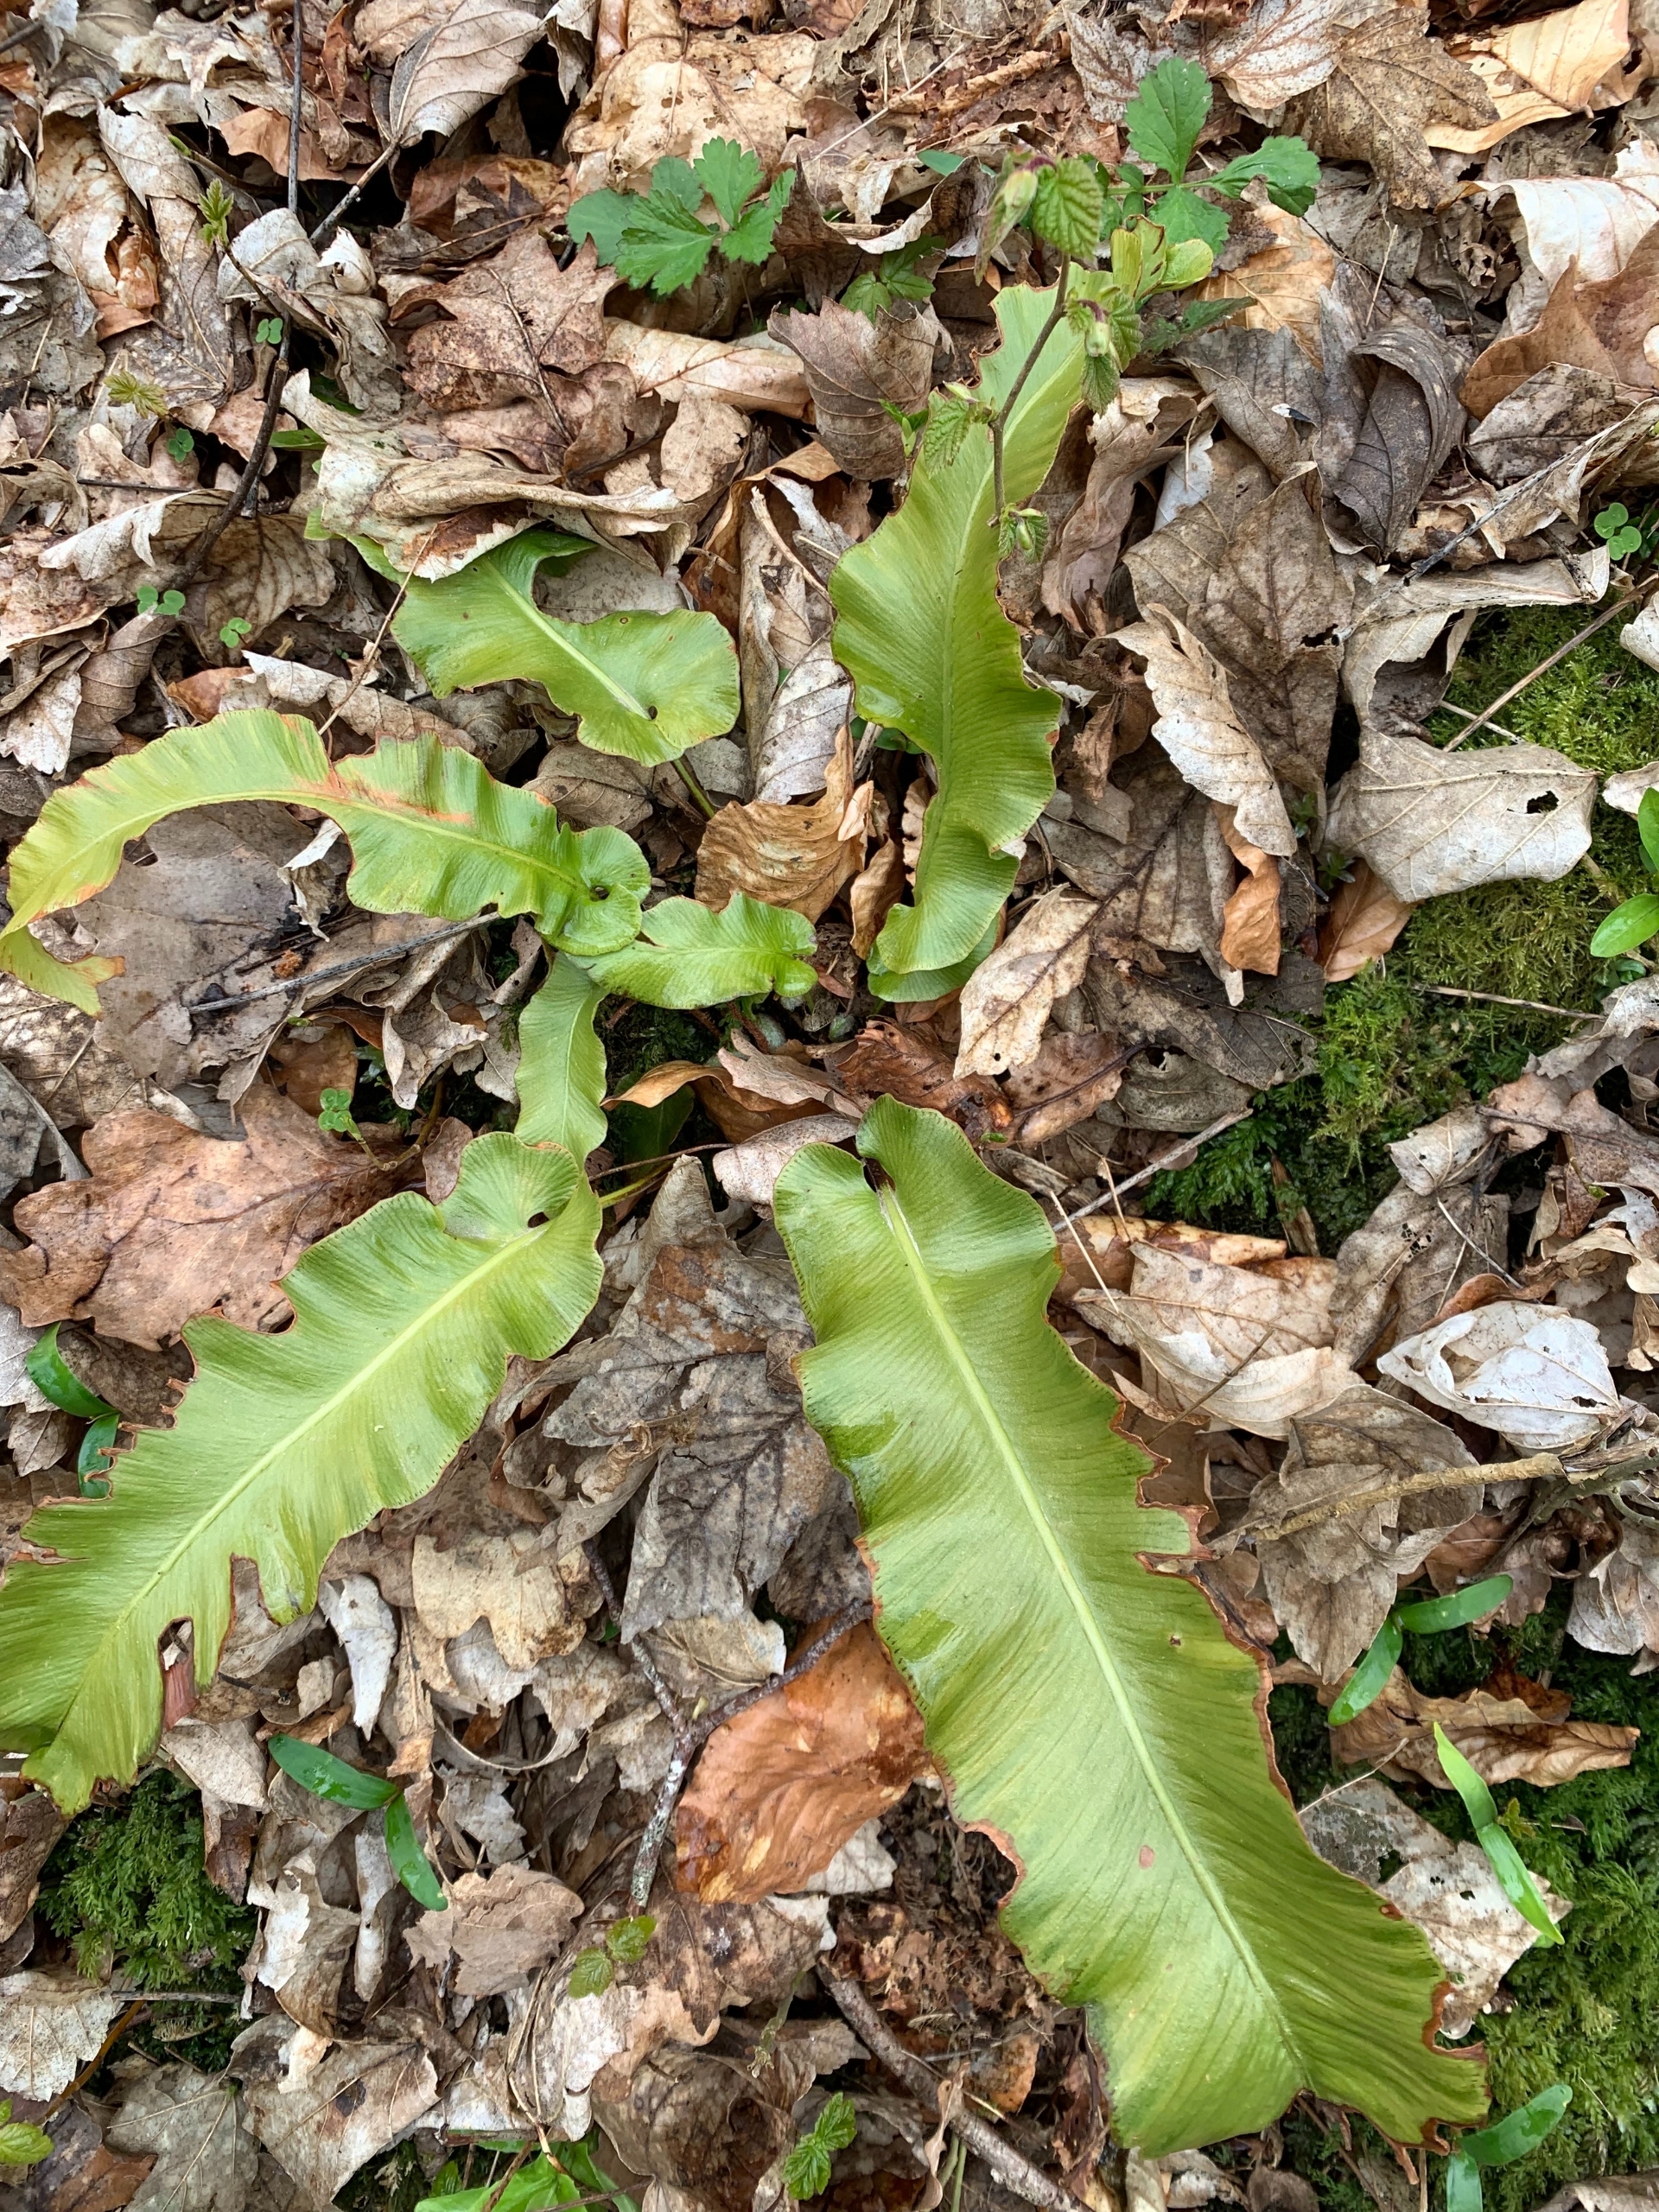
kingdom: Plantae
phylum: Tracheophyta
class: Polypodiopsida
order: Polypodiales
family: Aspleniaceae
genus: Asplenium
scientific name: Asplenium scolopendrium
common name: Hjortetunge
